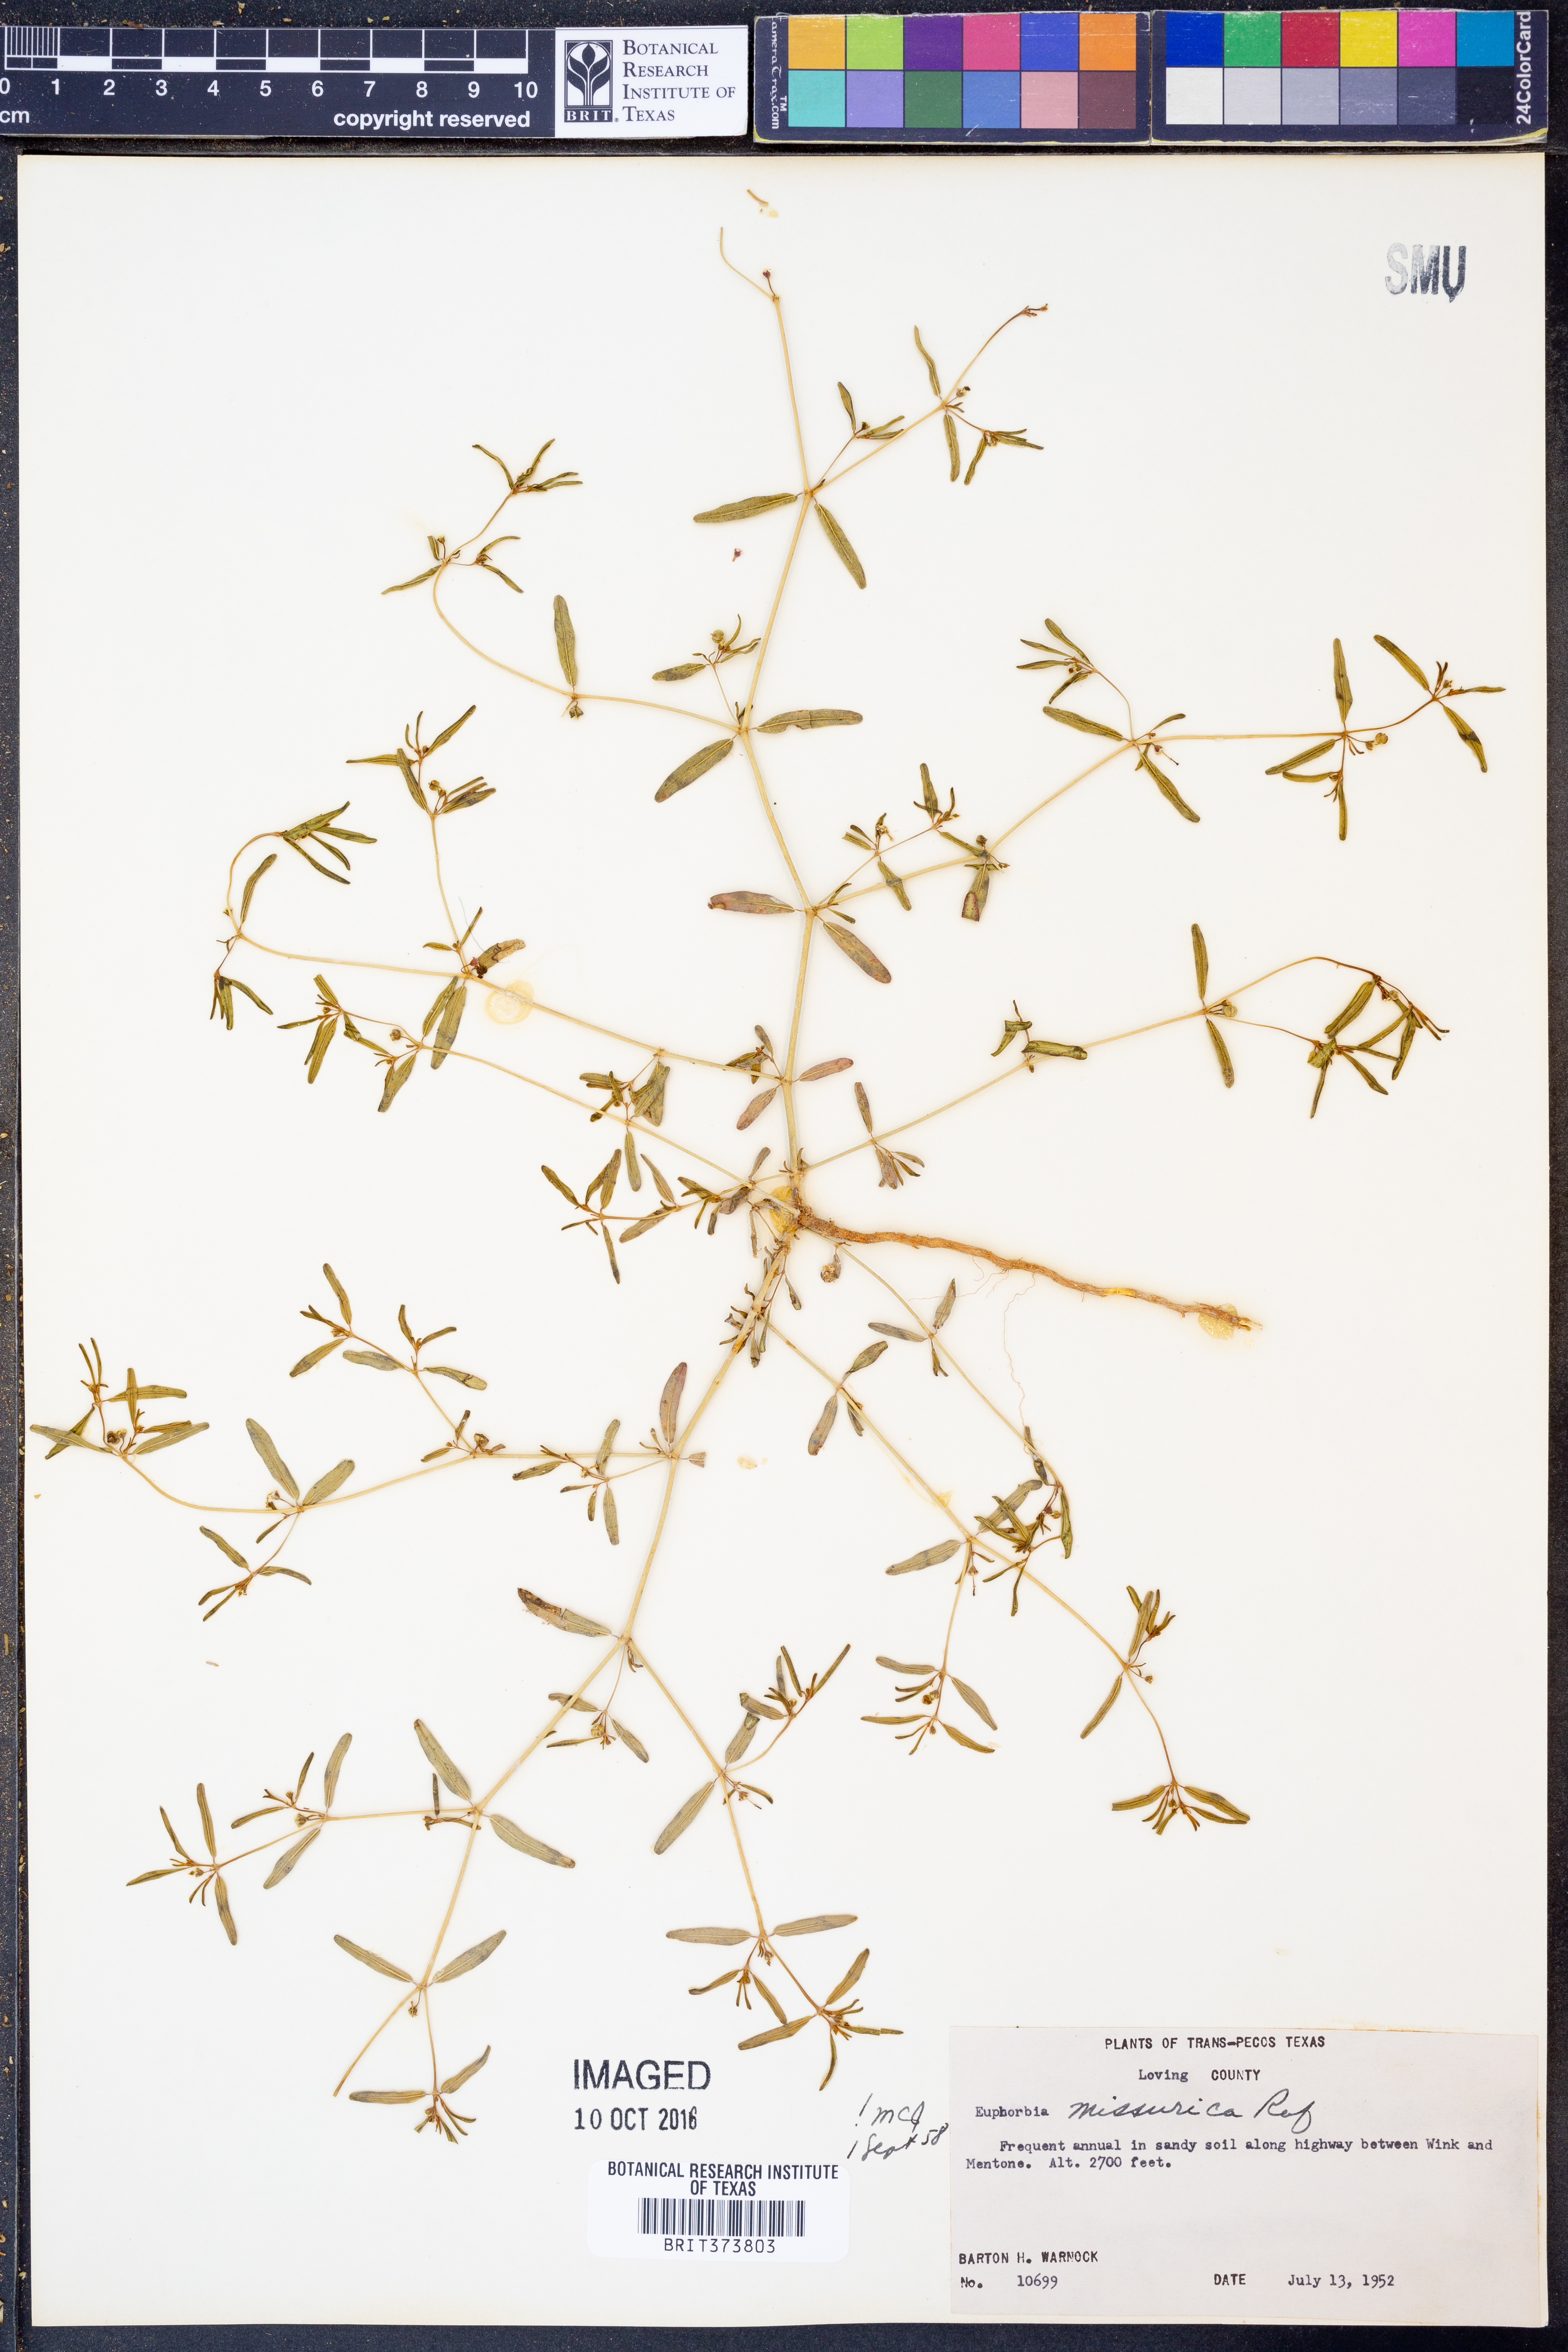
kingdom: Plantae
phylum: Tracheophyta
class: Magnoliopsida
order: Malpighiales
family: Euphorbiaceae
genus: Euphorbia
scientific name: Euphorbia missurica
